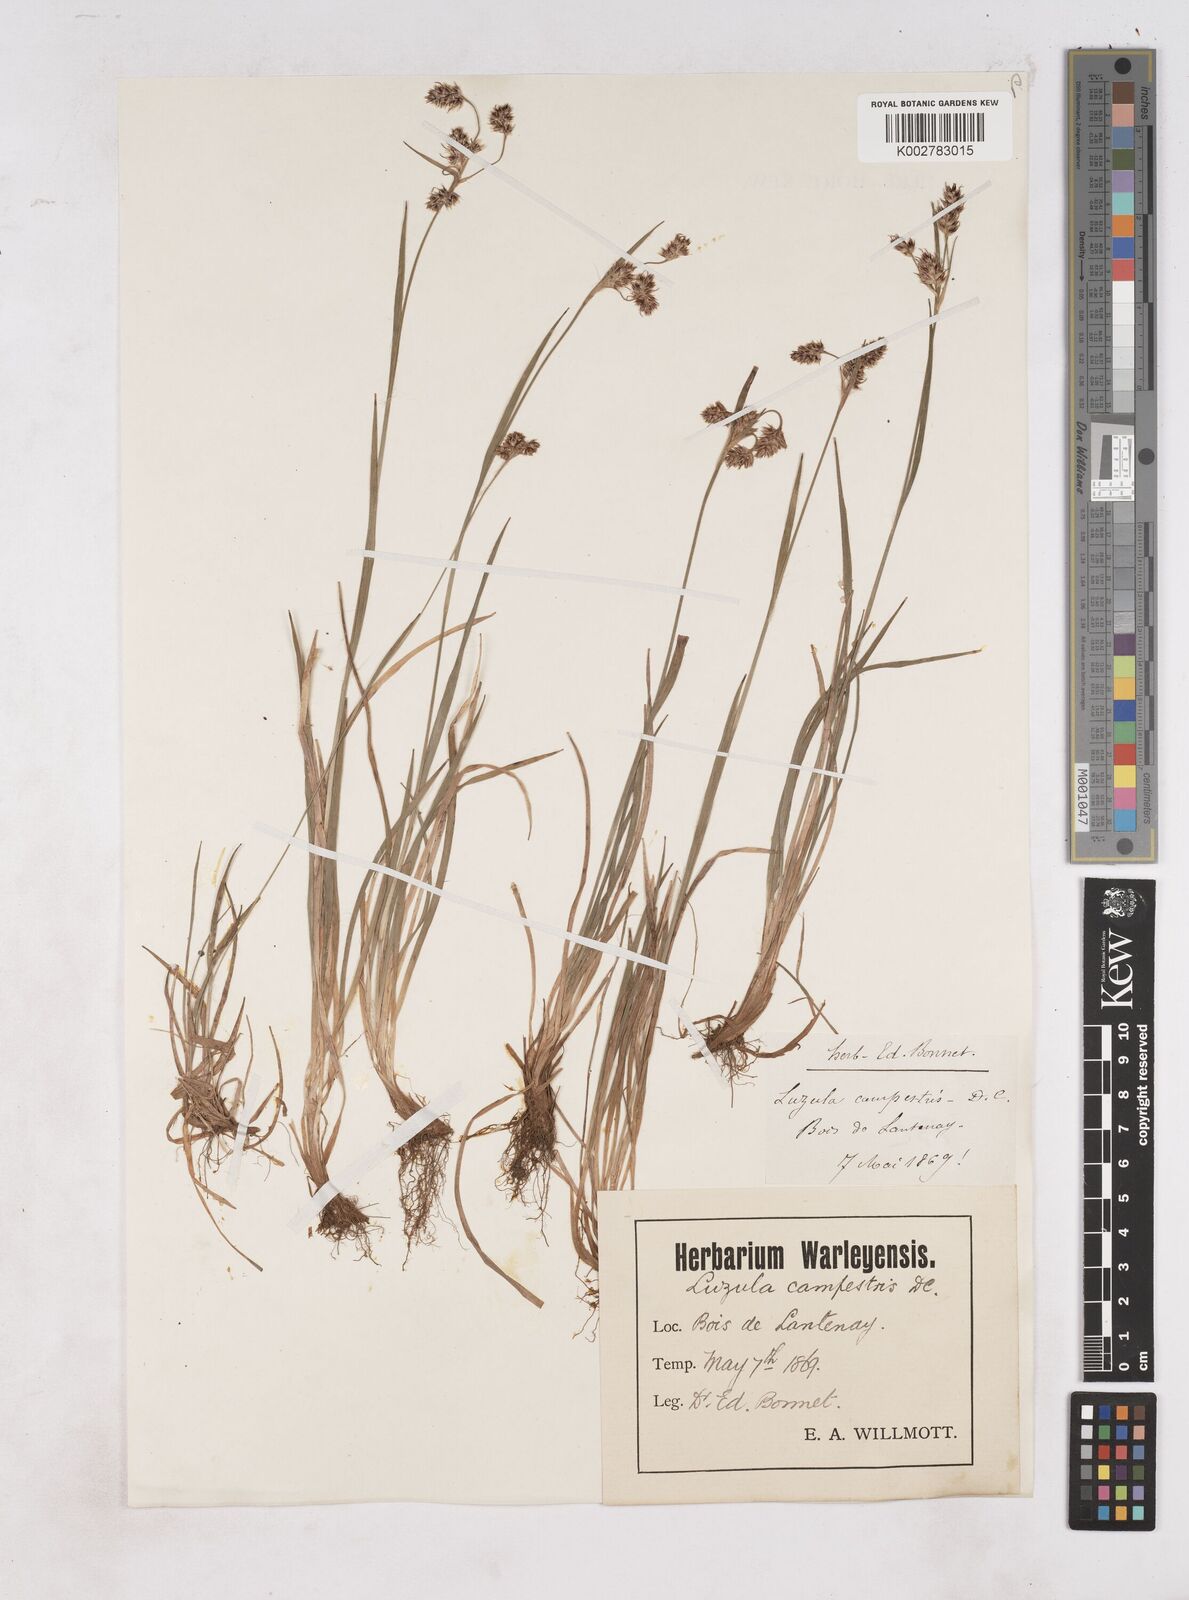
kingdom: Plantae
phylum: Tracheophyta
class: Liliopsida
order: Poales
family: Juncaceae
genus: Luzula
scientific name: Luzula campestris
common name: Field wood-rush
